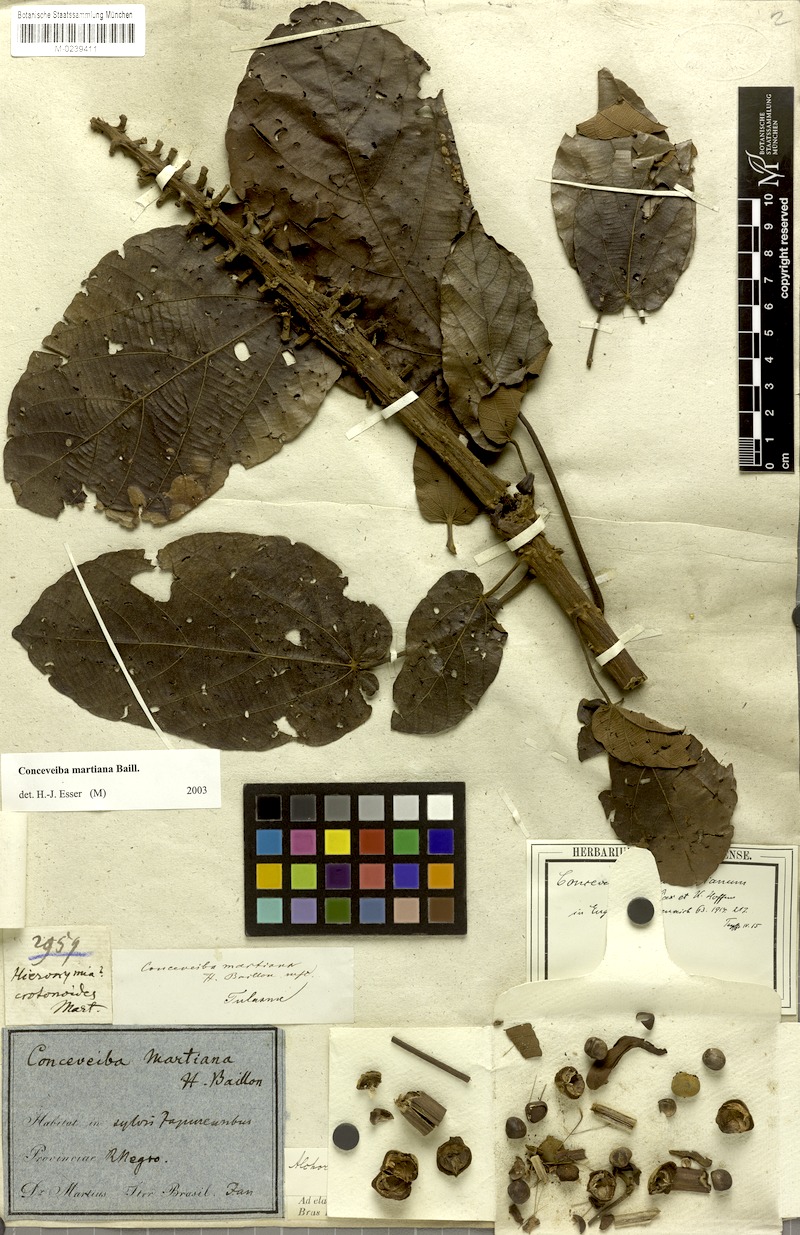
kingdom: Plantae
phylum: Tracheophyta
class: Magnoliopsida
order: Malpighiales
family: Euphorbiaceae
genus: Conceveiba
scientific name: Conceveiba martiana
